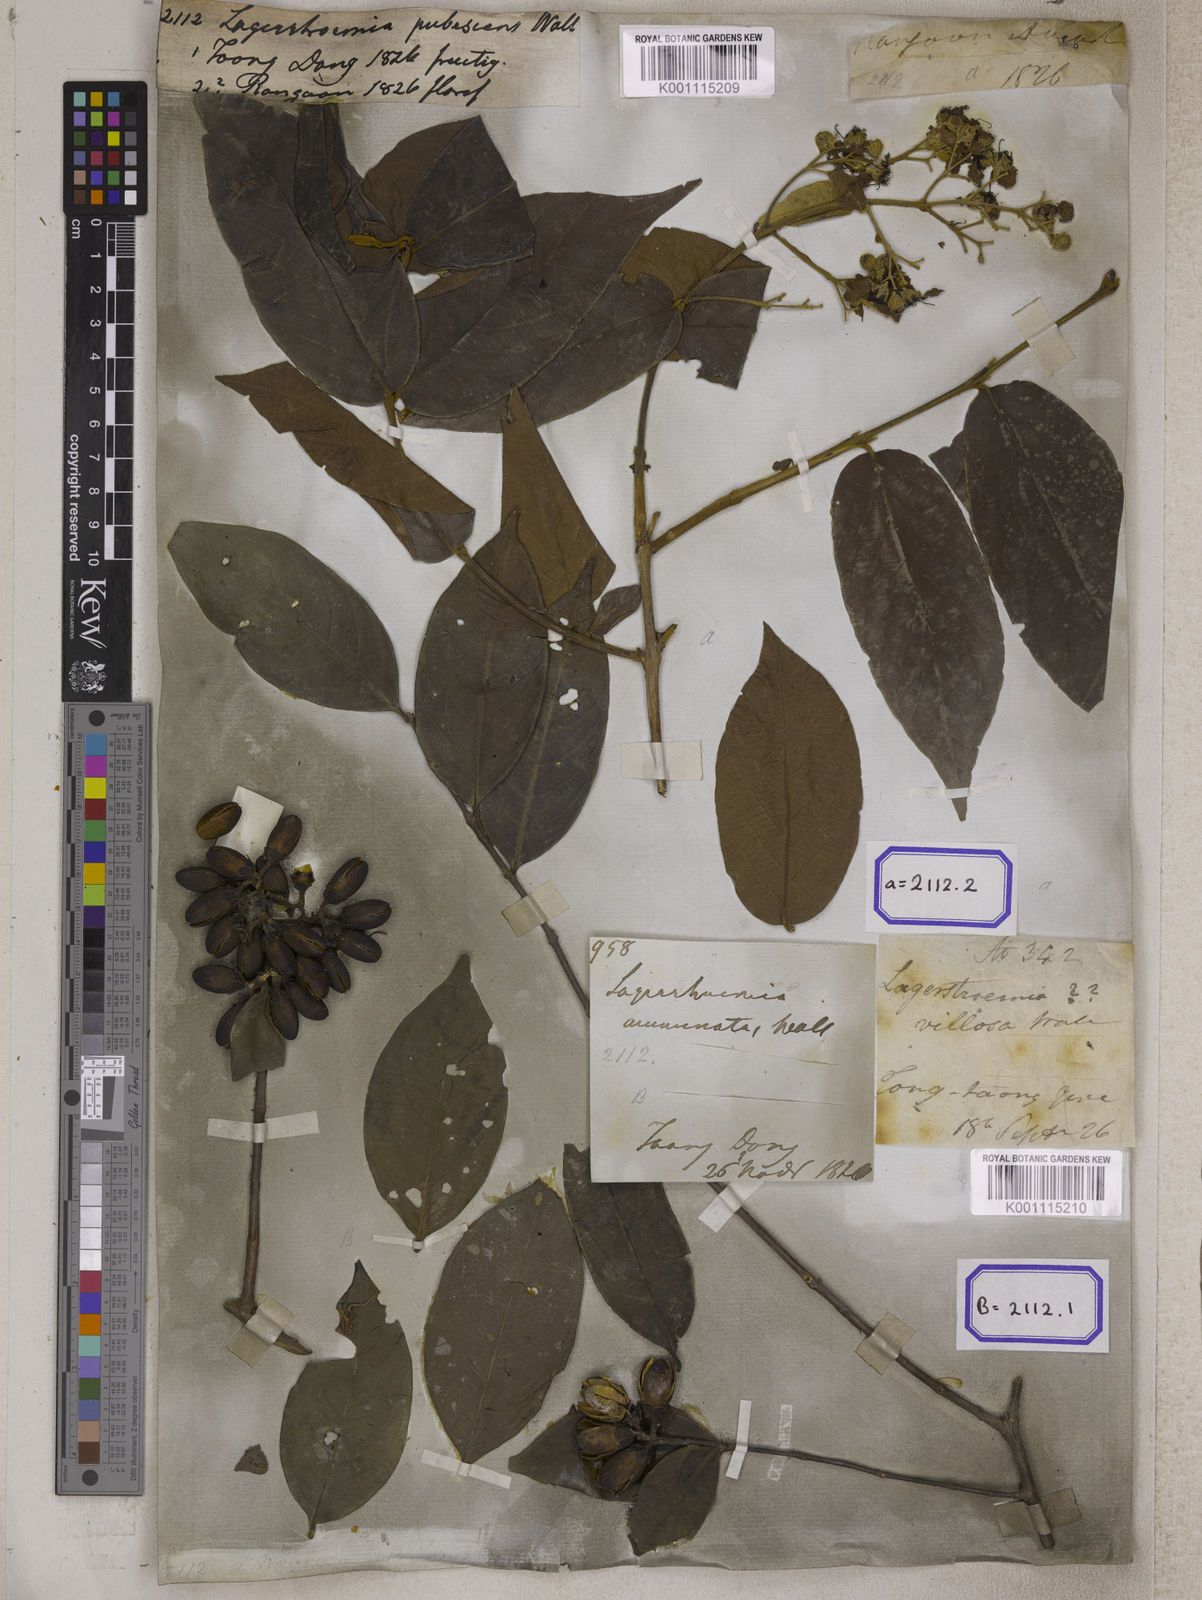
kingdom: Plantae
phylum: Tracheophyta
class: Magnoliopsida
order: Myrtales
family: Lythraceae
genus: Lagerstroemia
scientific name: Lagerstroemia tomentosa
